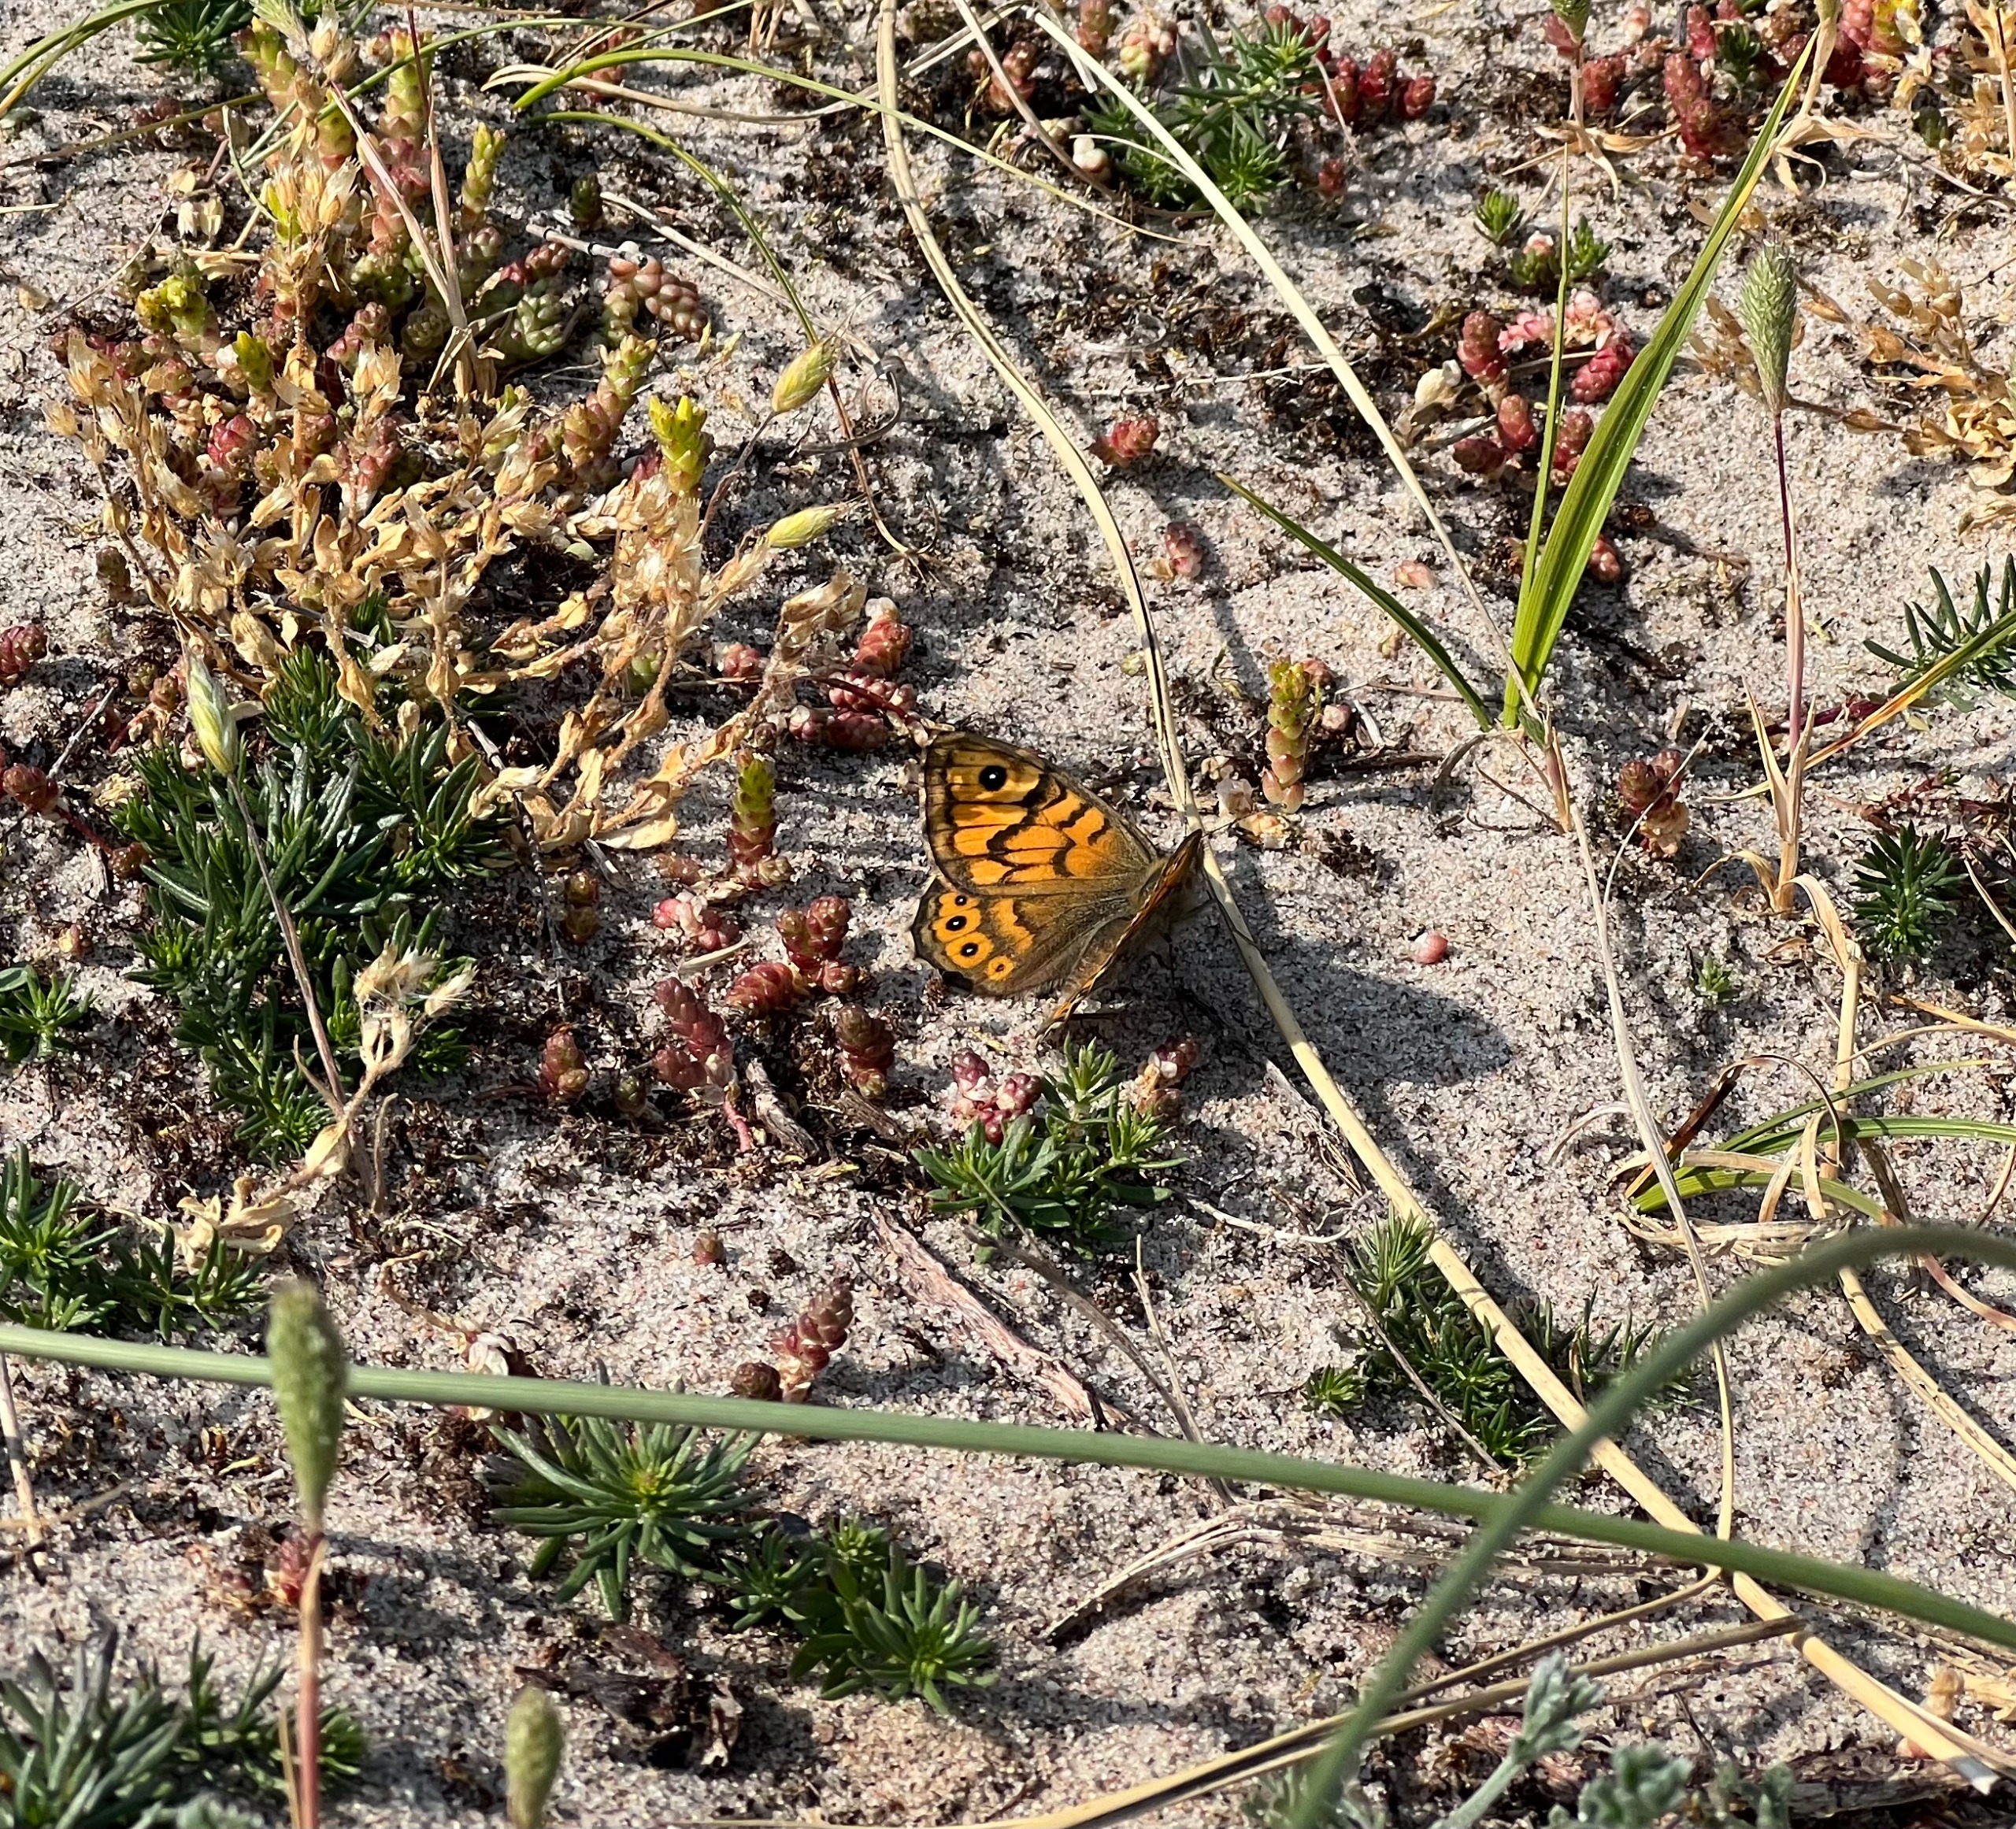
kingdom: Animalia
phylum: Arthropoda
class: Insecta
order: Lepidoptera
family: Nymphalidae
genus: Pararge
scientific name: Pararge Lasiommata megera
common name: Vejrandøje
